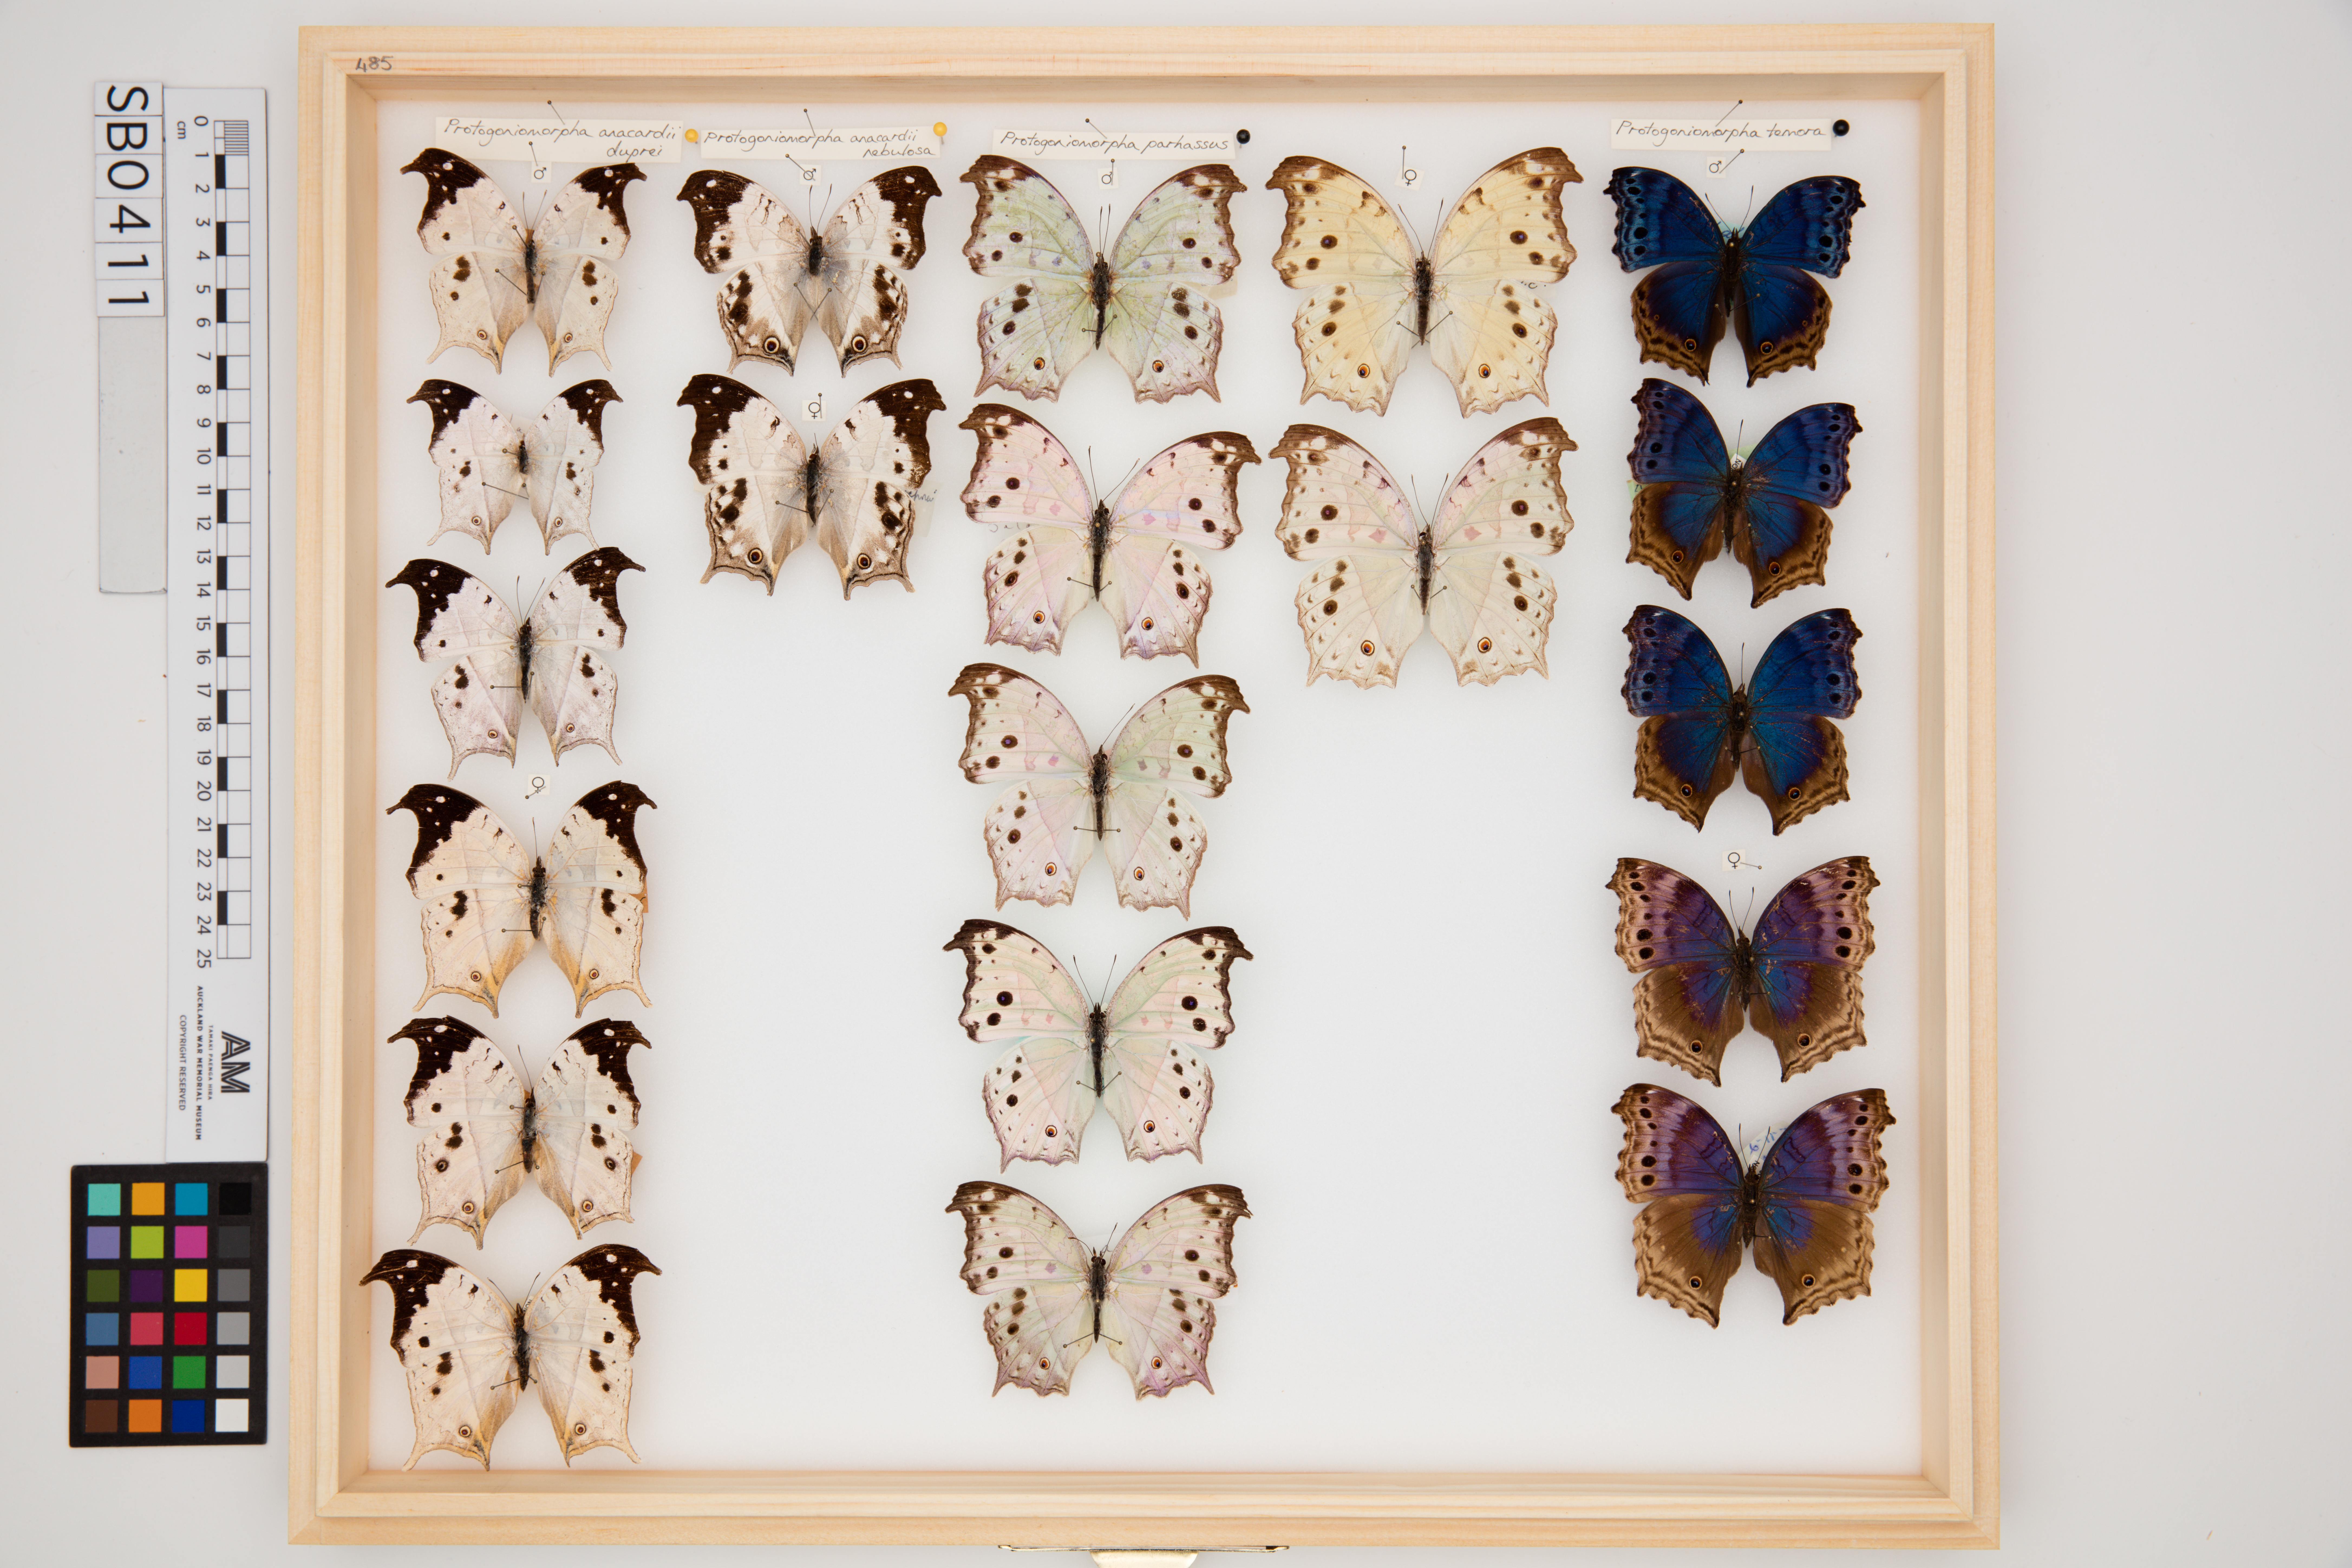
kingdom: Animalia
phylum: Arthropoda
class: Insecta
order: Lepidoptera
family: Nymphalidae
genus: Salamis
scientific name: Salamis Protogoniomorpha parhassus
